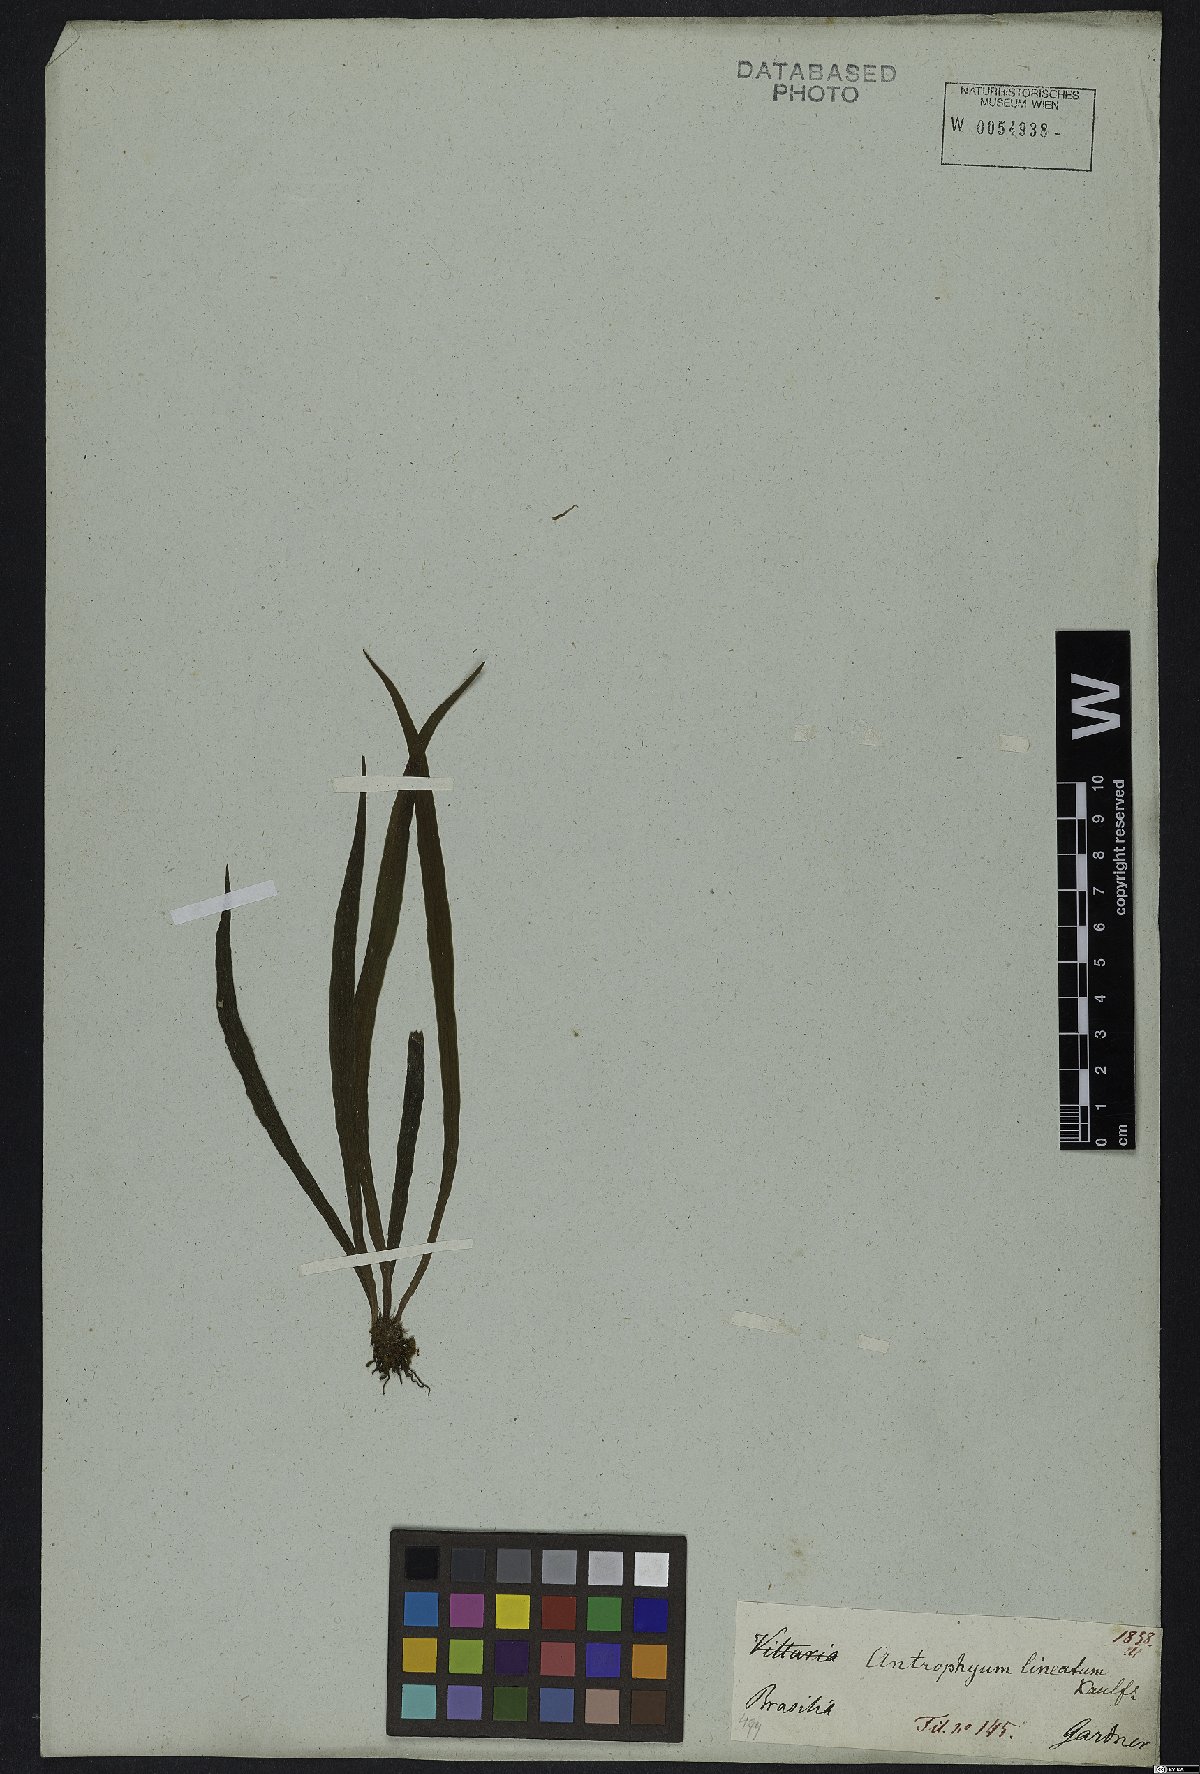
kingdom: Plantae
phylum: Tracheophyta
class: Polypodiopsida
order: Polypodiales
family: Pteridaceae
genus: Polytaenium
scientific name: Polytaenium lineatum
